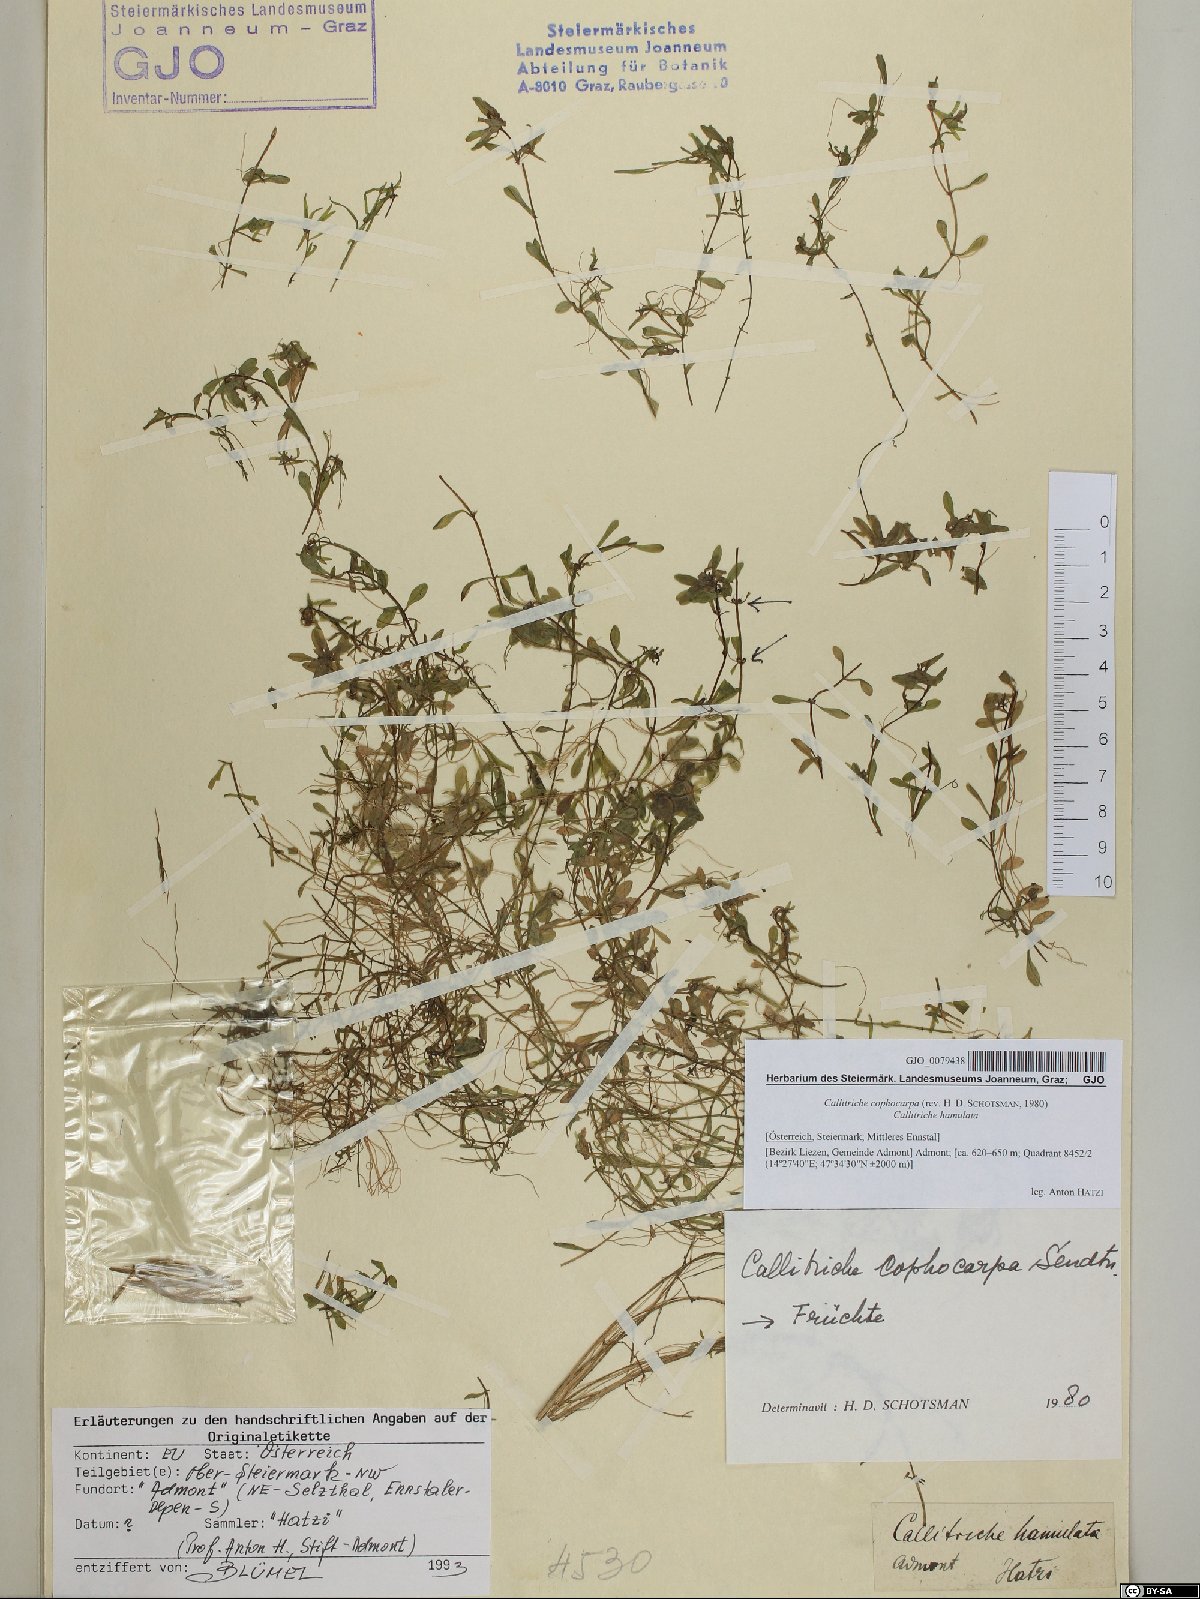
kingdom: Plantae
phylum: Tracheophyta
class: Magnoliopsida
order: Lamiales
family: Plantaginaceae
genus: Callitriche
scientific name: Callitriche cophocarpa
